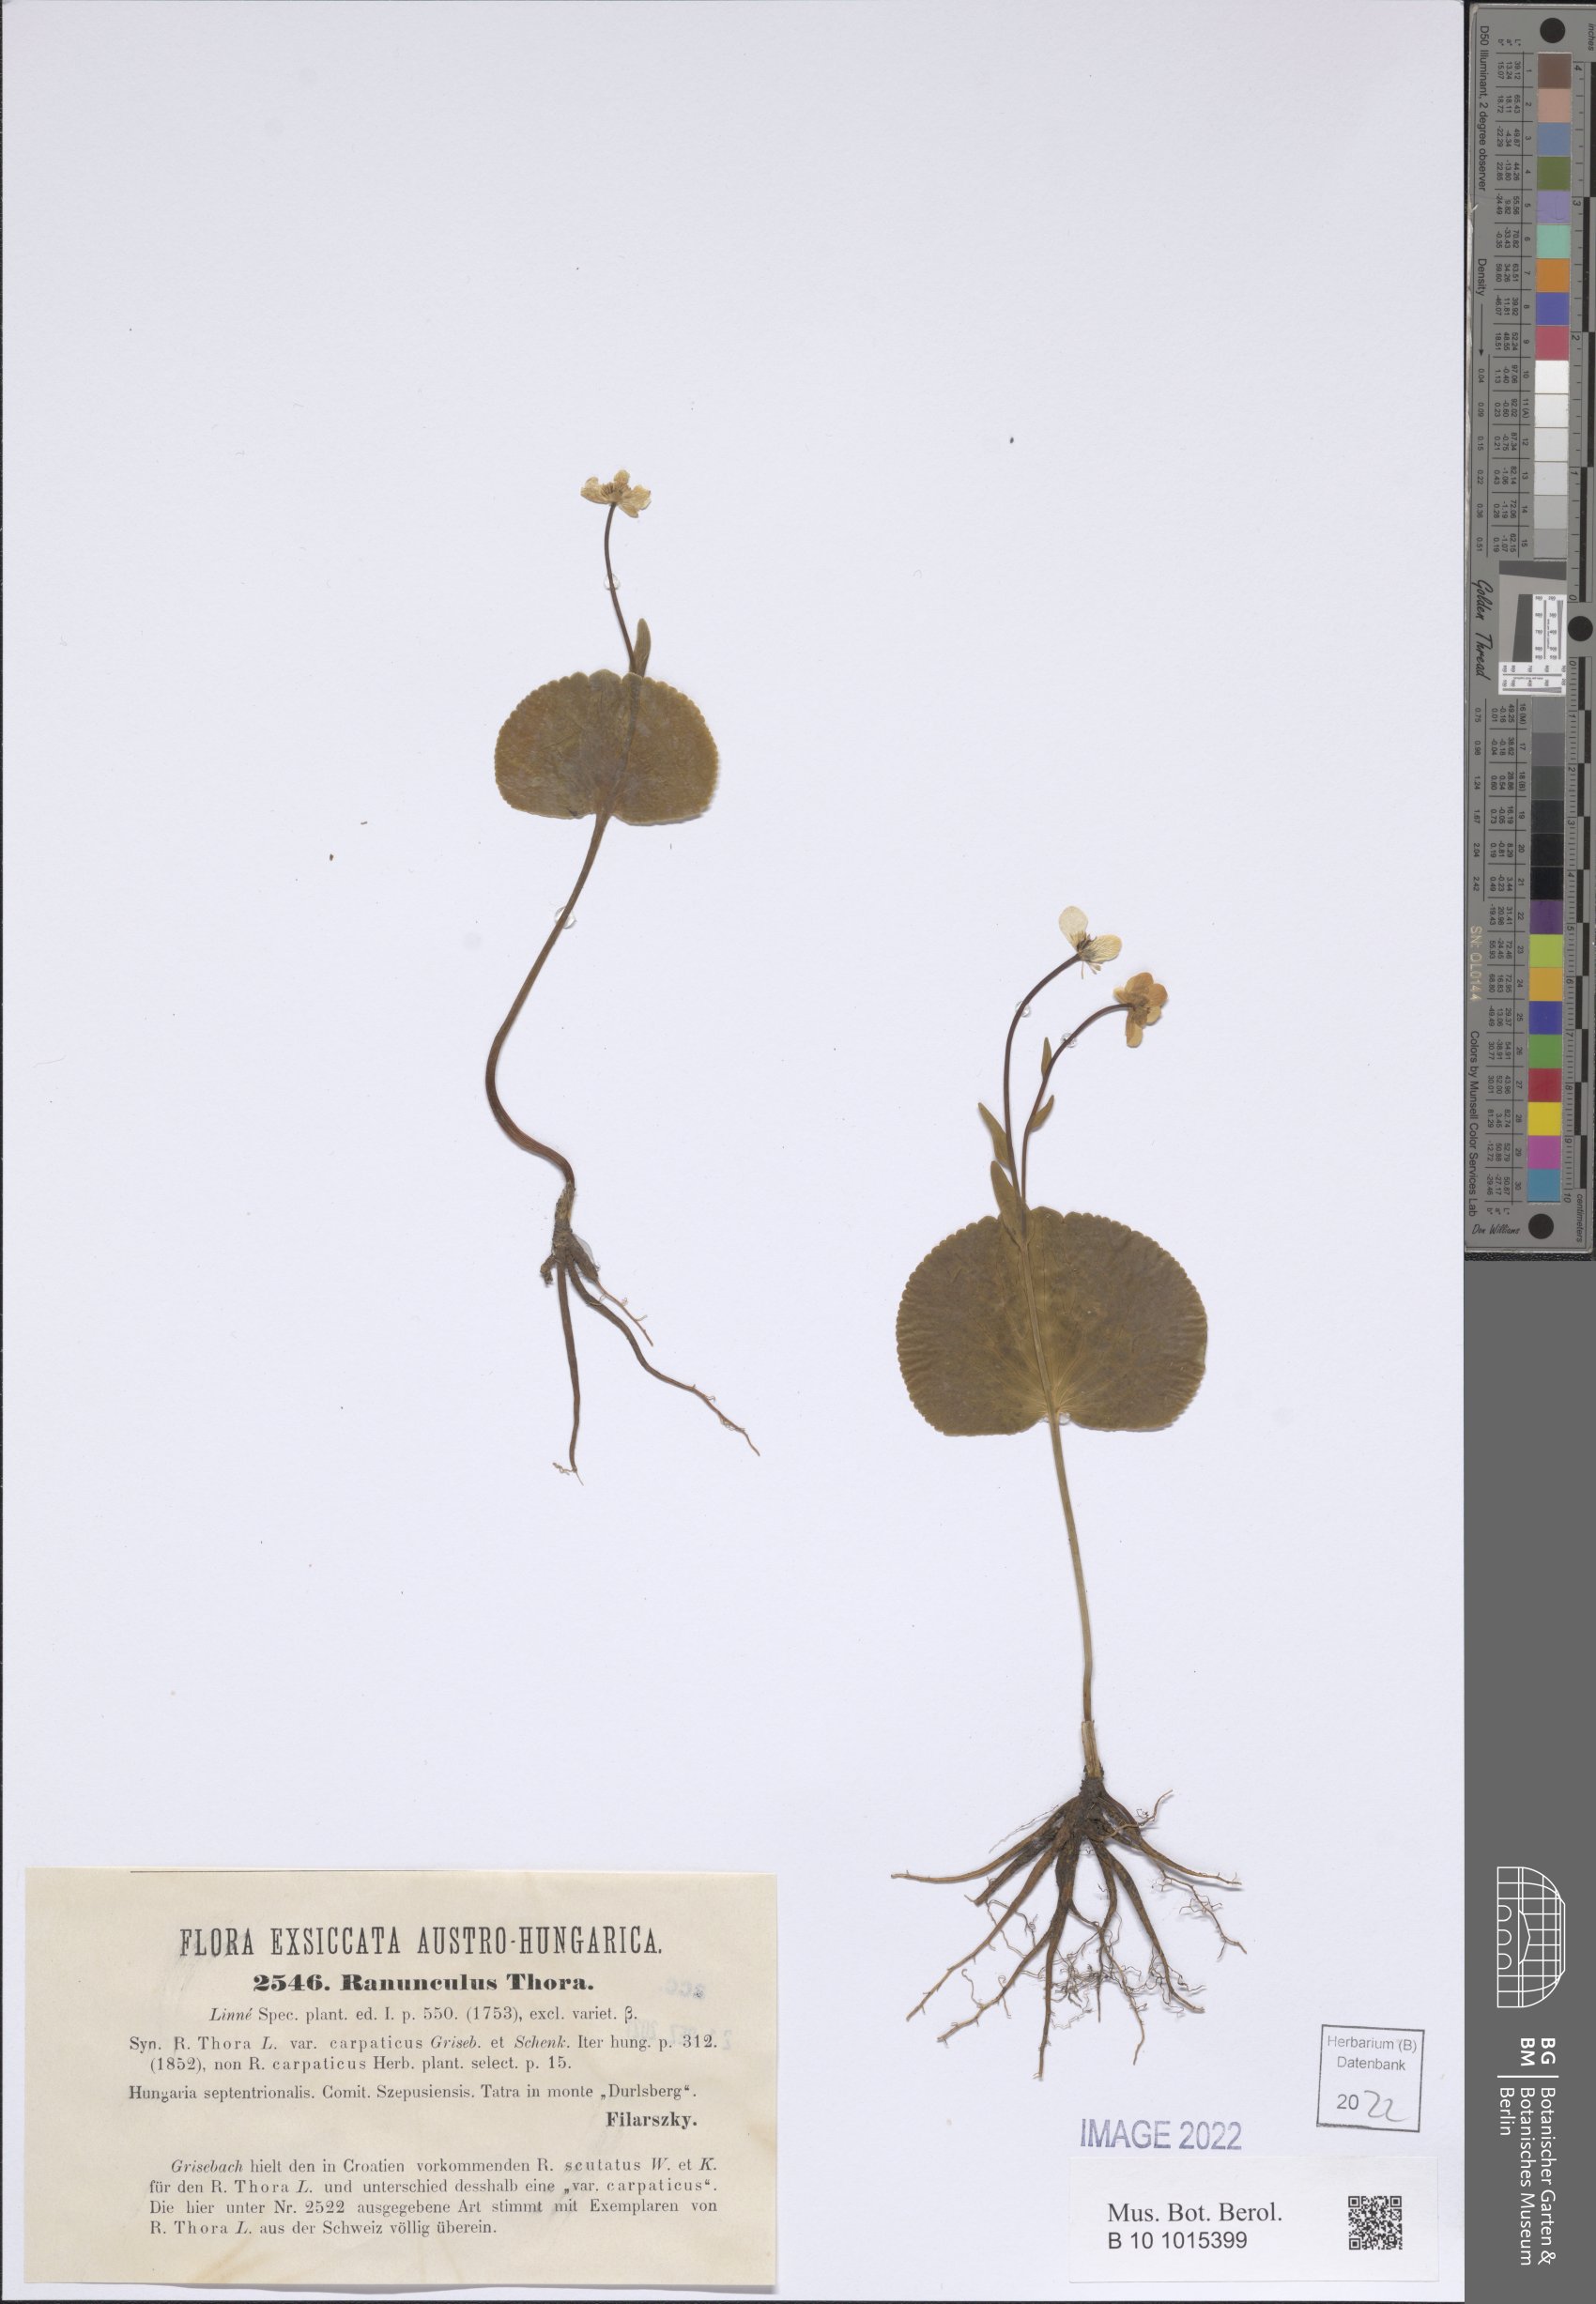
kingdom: Plantae
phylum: Tracheophyta
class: Magnoliopsida
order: Ranunculales
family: Ranunculaceae
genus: Ranunculus
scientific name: Ranunculus thora
